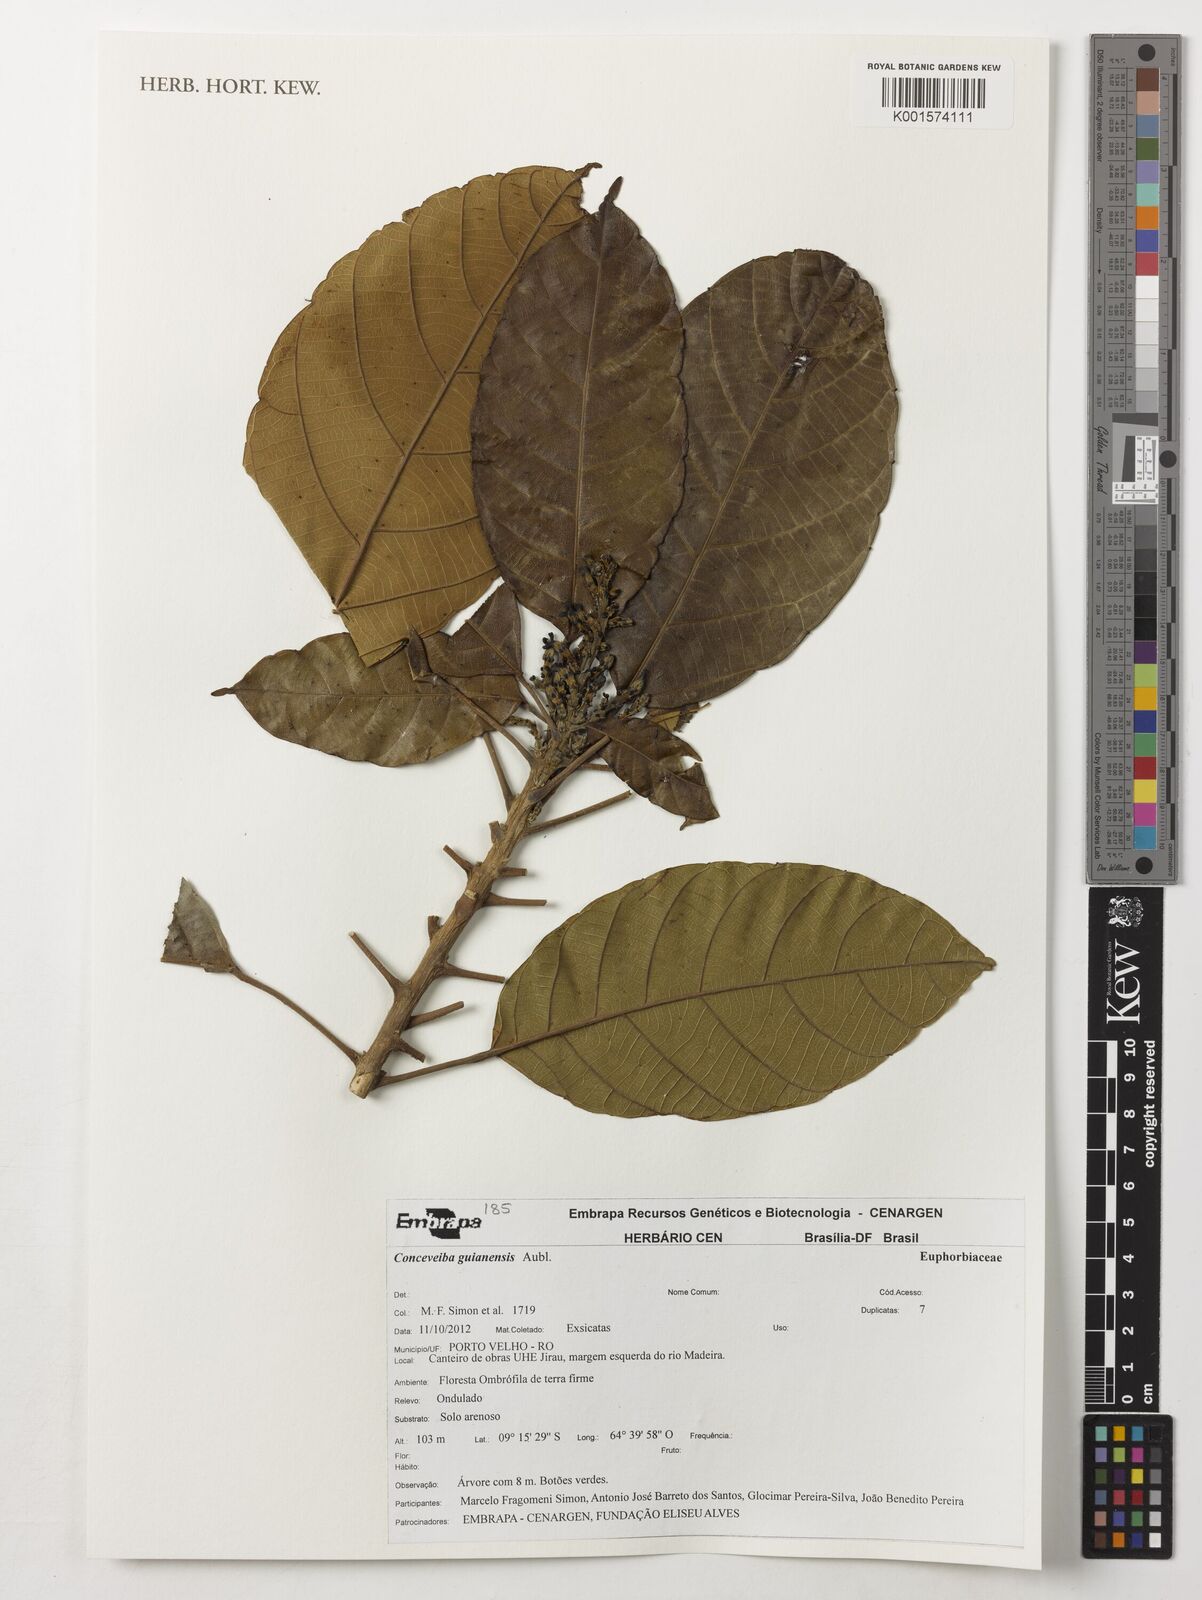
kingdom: Plantae
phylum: Tracheophyta
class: Magnoliopsida
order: Malpighiales
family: Euphorbiaceae
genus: Conceveiba
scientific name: Conceveiba guianensis
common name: Poatoru
